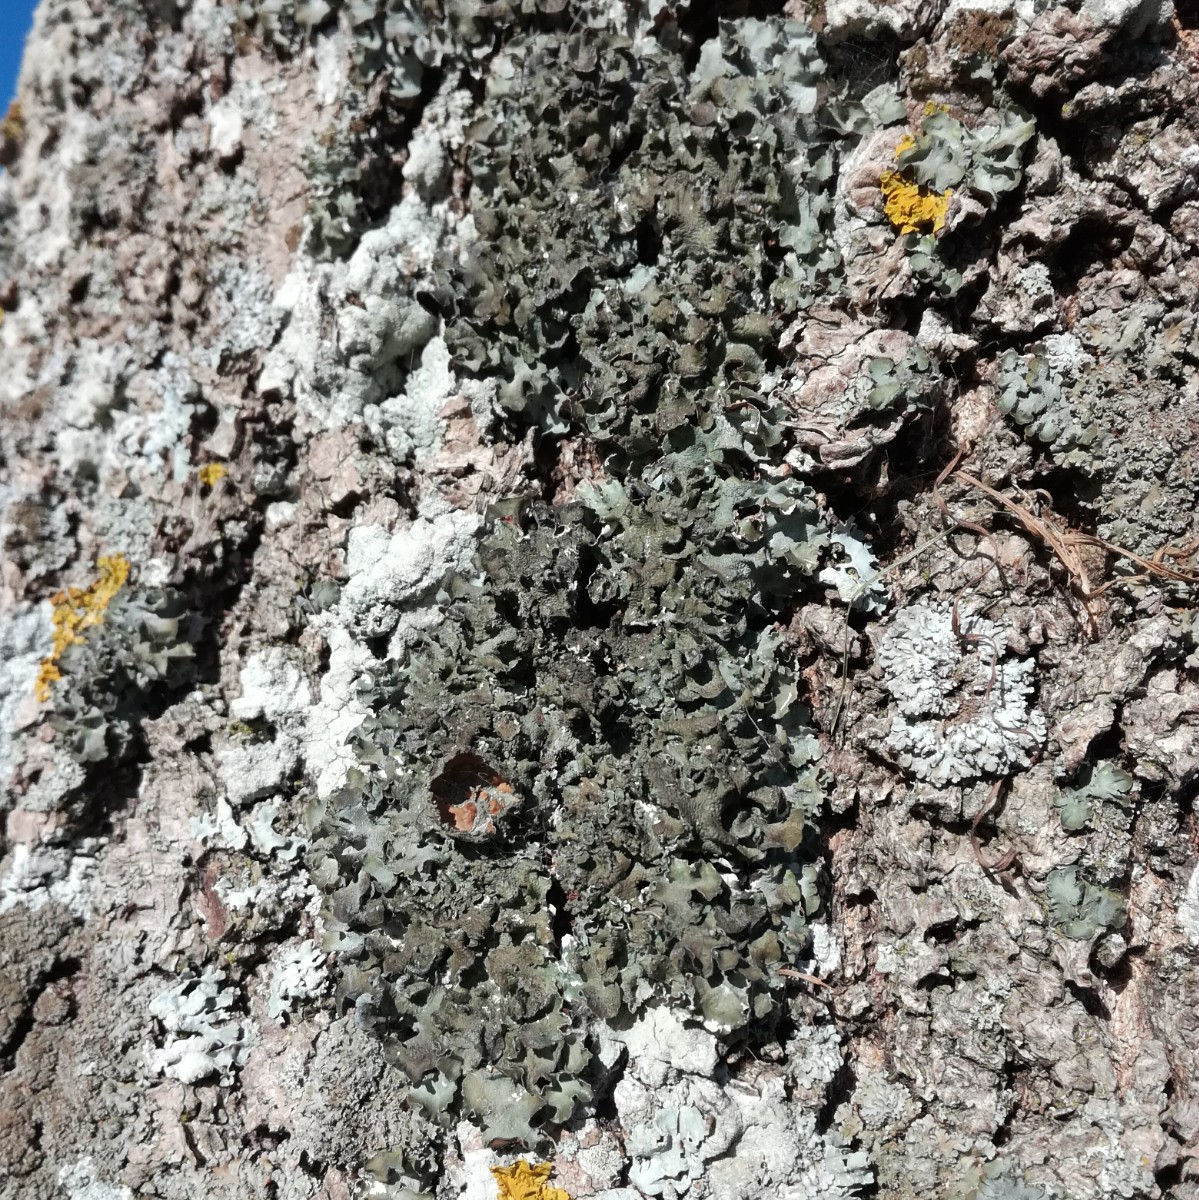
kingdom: Fungi
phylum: Ascomycota
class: Lecanoromycetes
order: Lecanorales
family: Parmeliaceae
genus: Pleurosticta
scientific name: Pleurosticta acetabulum
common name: stor skållav
